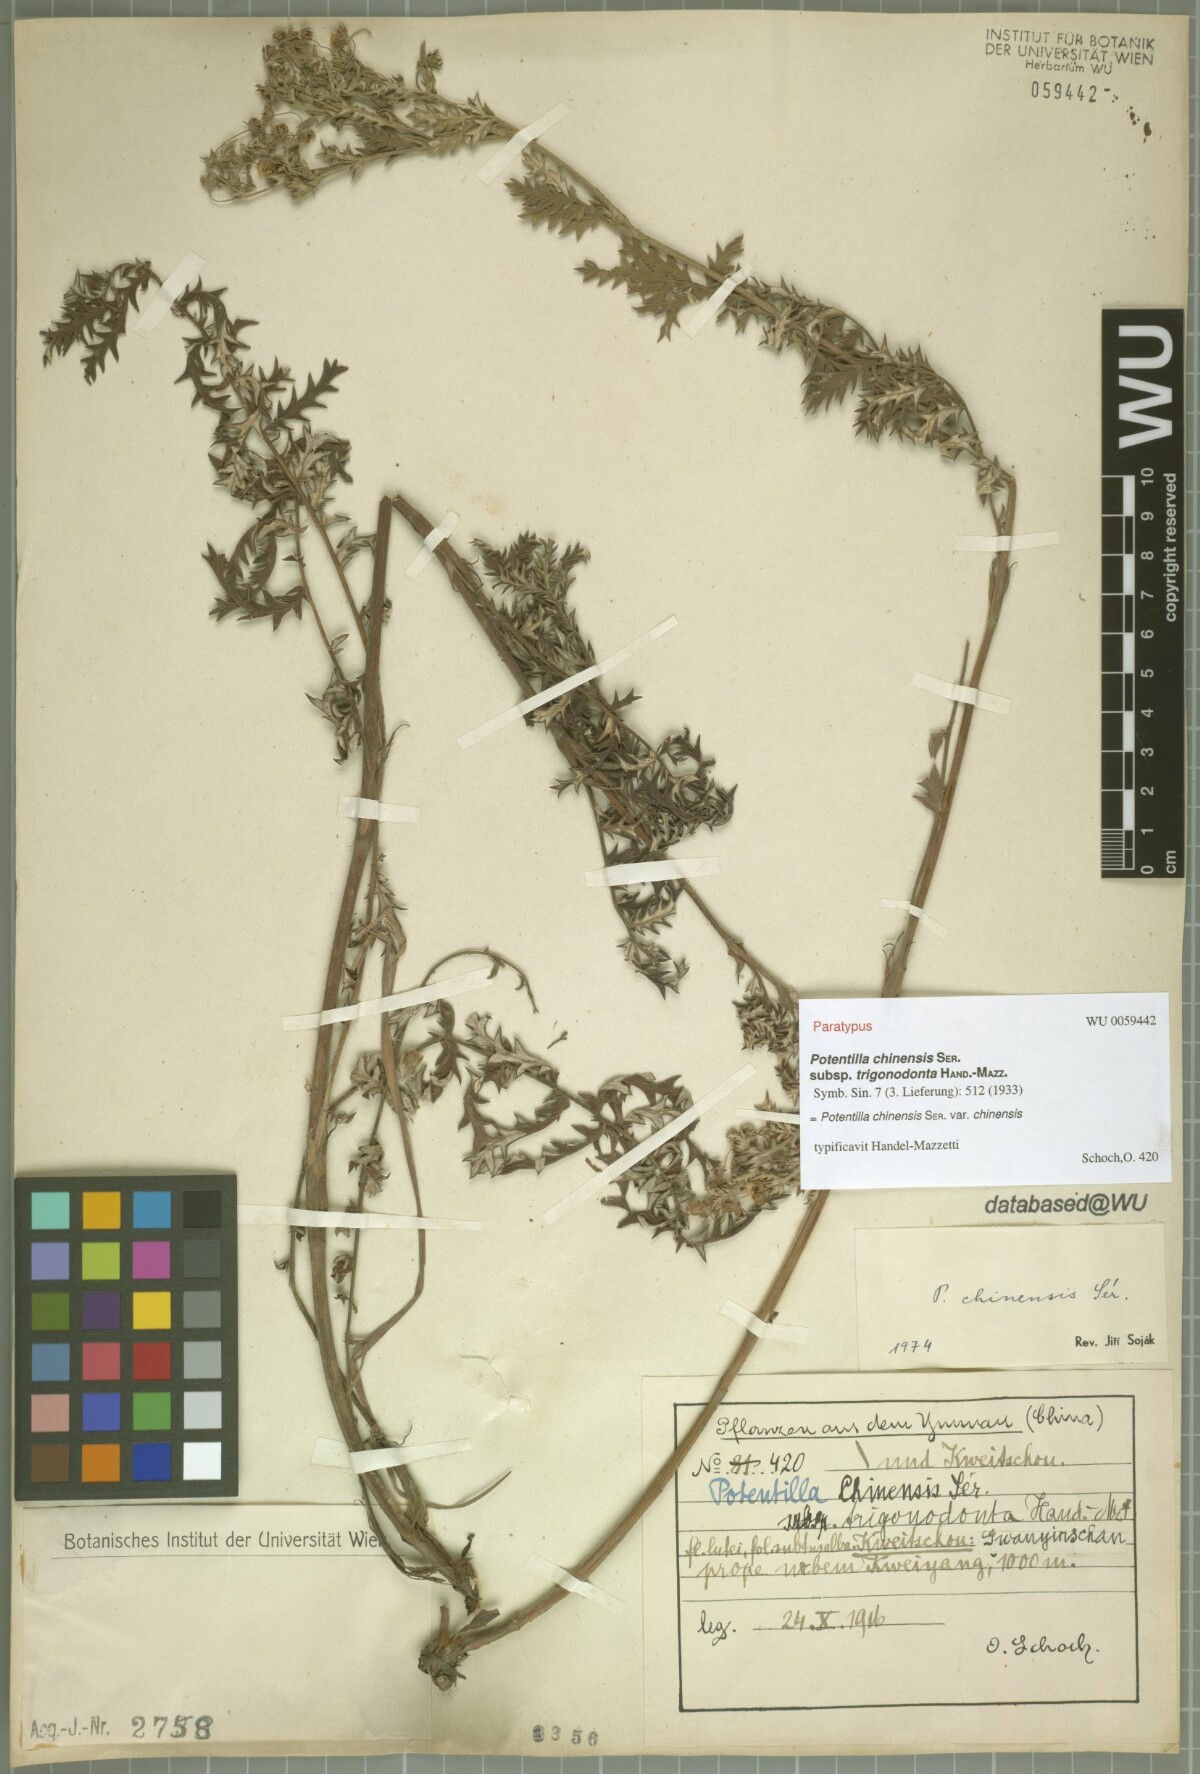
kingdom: Plantae
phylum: Tracheophyta
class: Magnoliopsida
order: Rosales
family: Rosaceae
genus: Potentilla
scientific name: Potentilla chinensis
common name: Chinese cinquefoil
